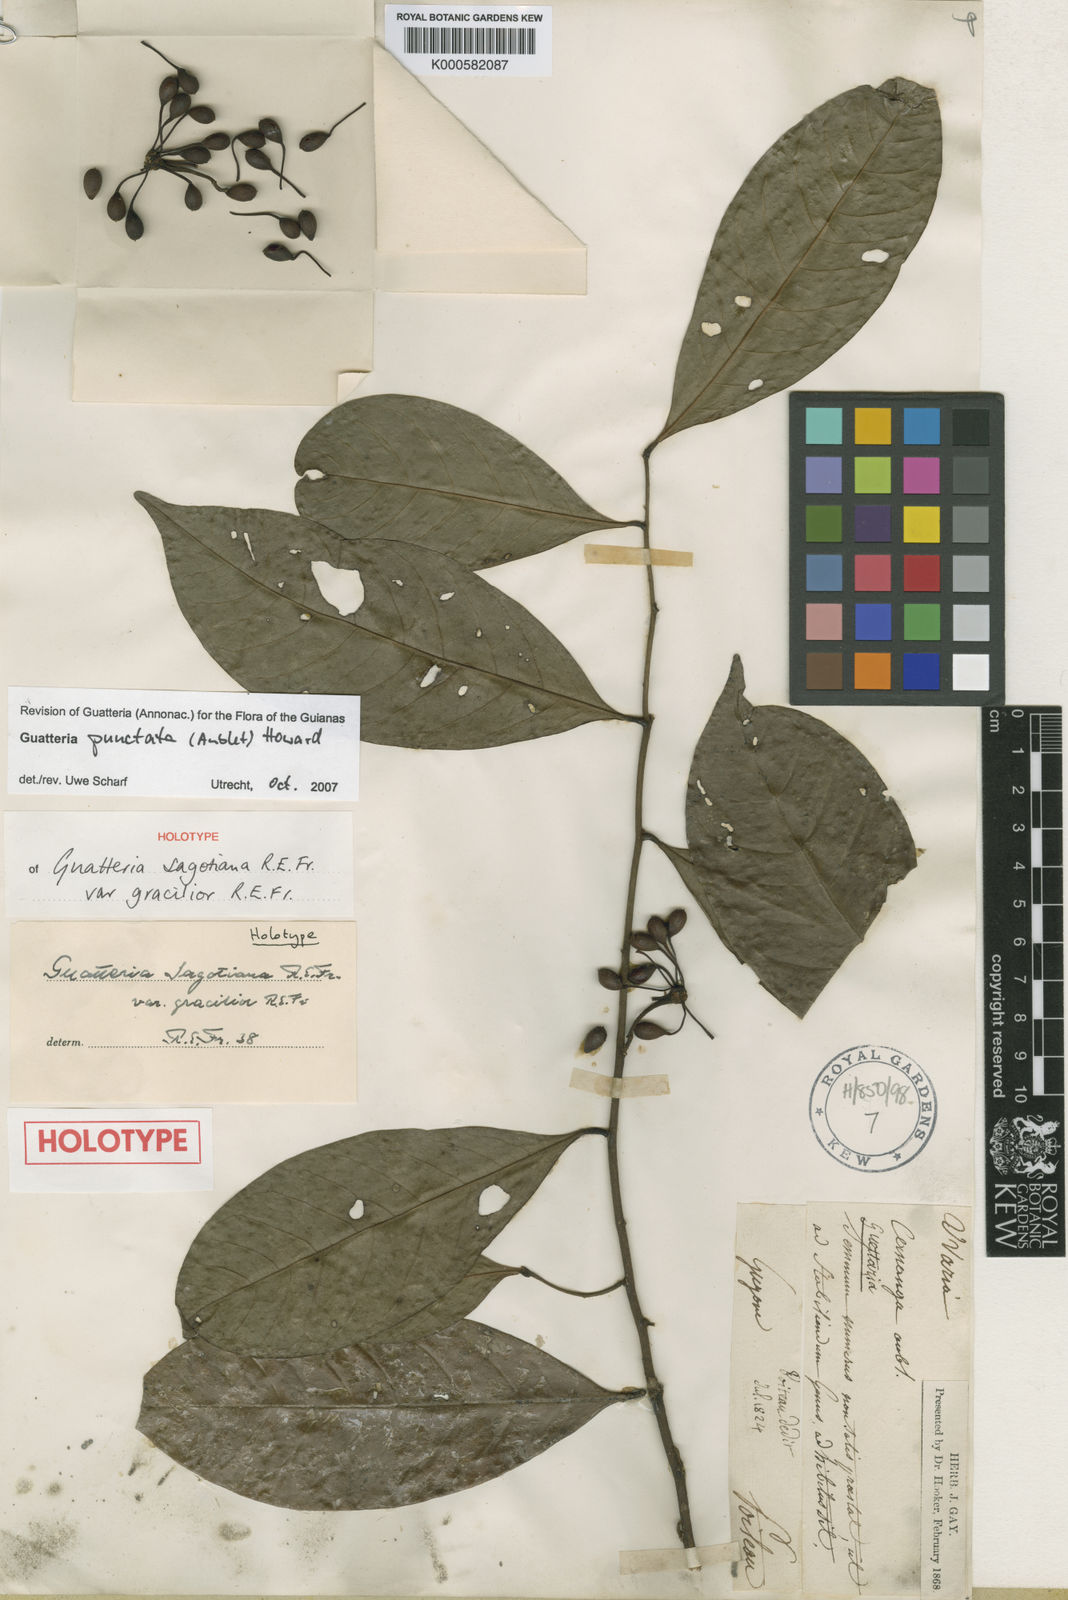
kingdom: Plantae
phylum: Tracheophyta
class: Magnoliopsida
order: Magnoliales
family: Annonaceae
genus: Guatteria
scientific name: Guatteria punctata
